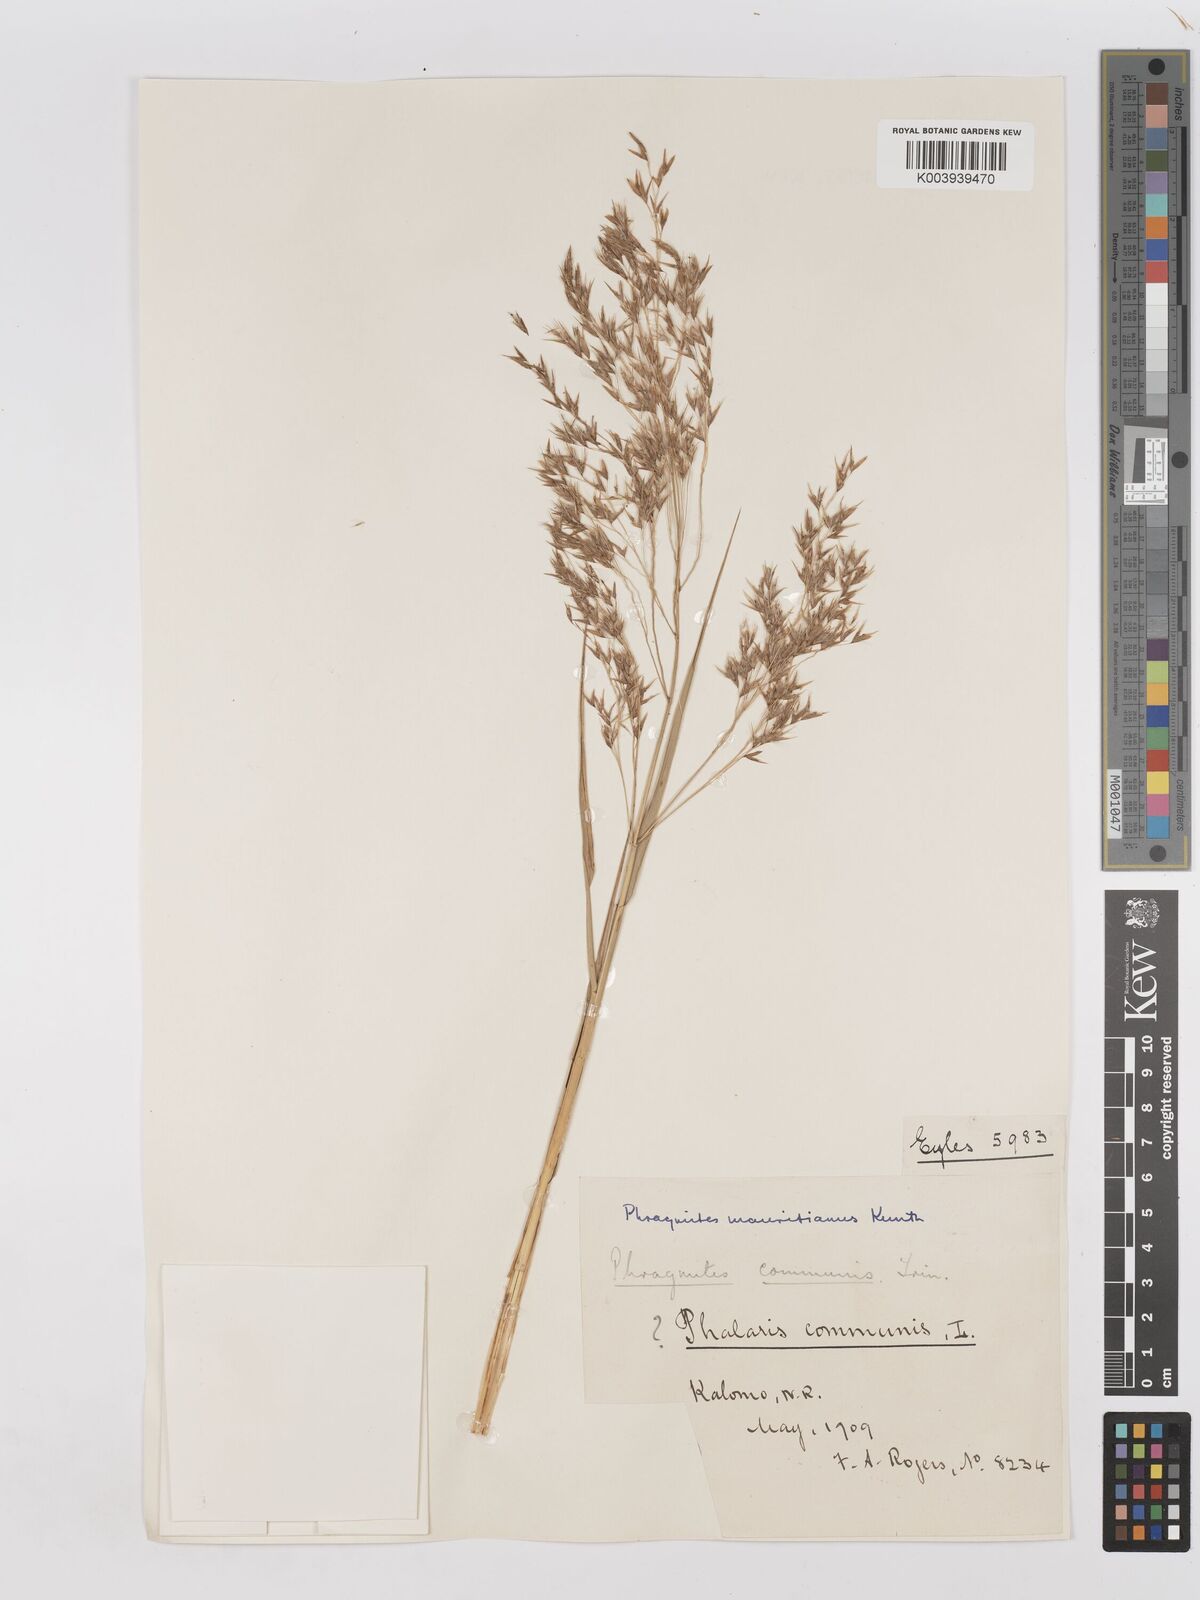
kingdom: Plantae
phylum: Tracheophyta
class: Liliopsida
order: Poales
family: Poaceae
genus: Phragmites
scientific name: Phragmites mauritianus
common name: Reed grass
